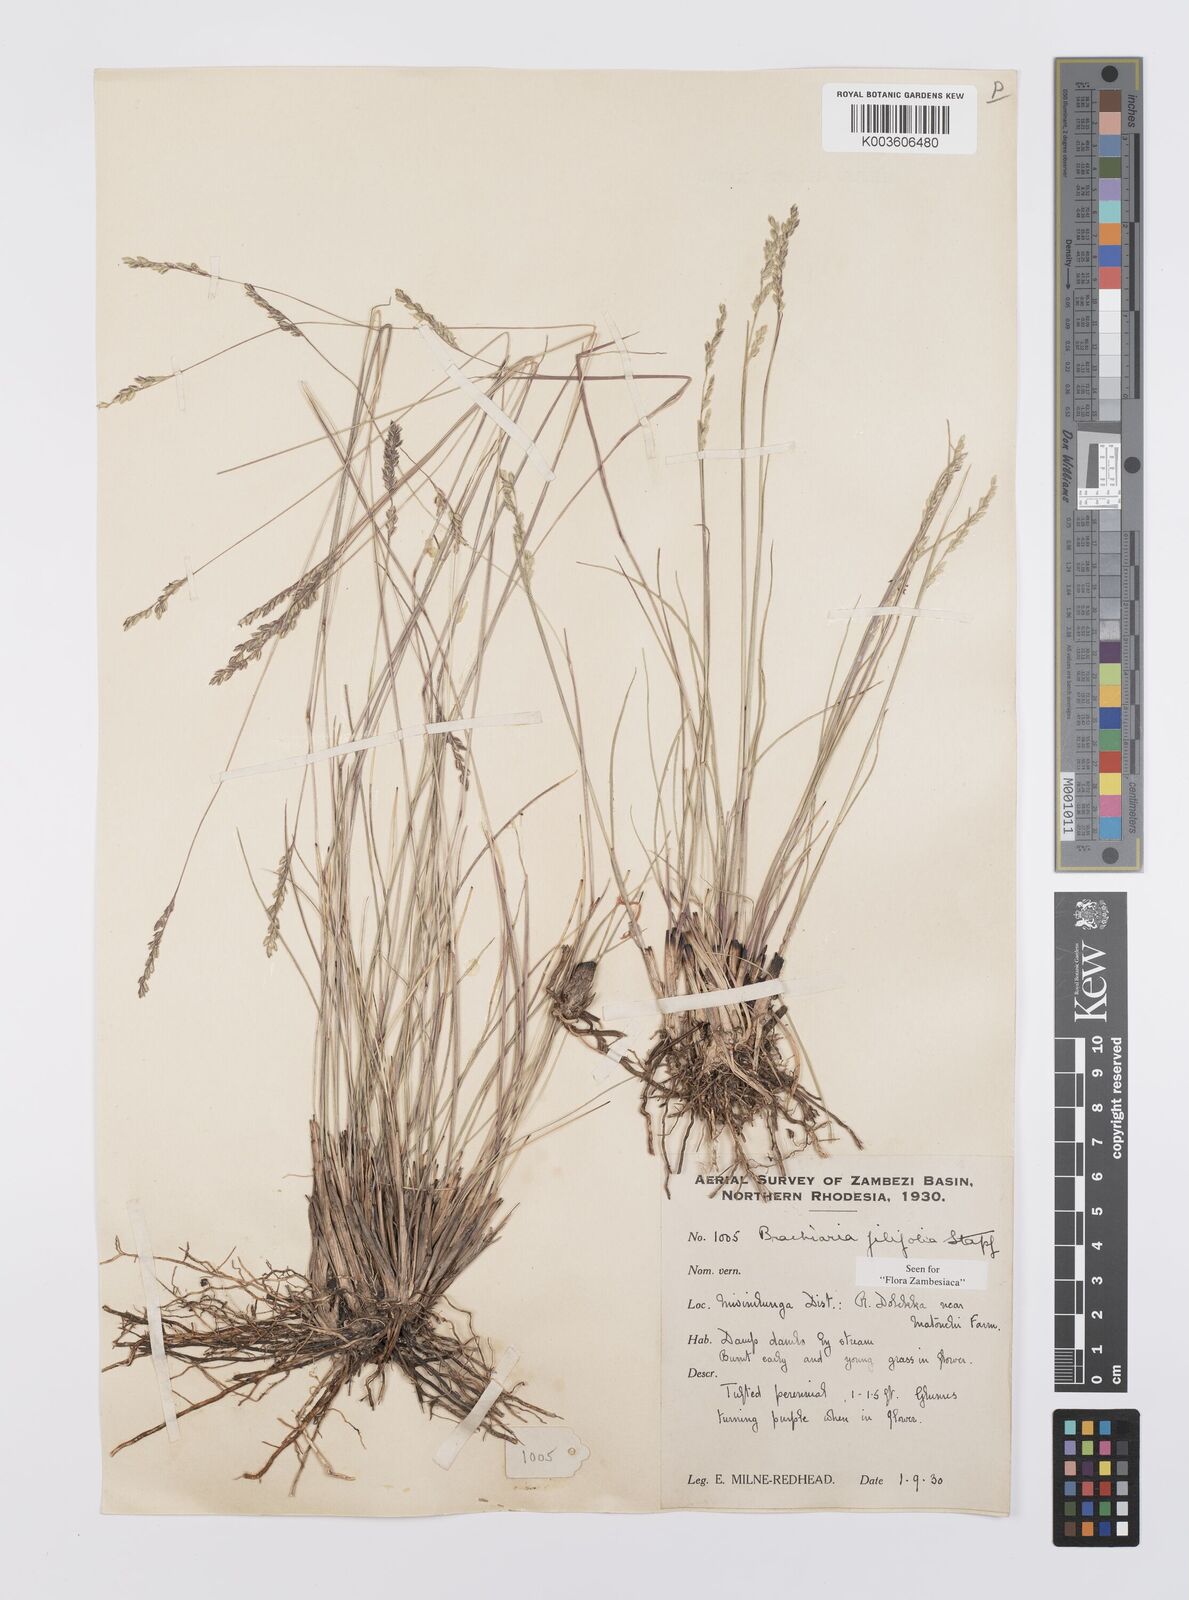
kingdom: Plantae
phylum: Tracheophyta
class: Liliopsida
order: Poales
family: Poaceae
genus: Urochloa
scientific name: Urochloa subulifolia
